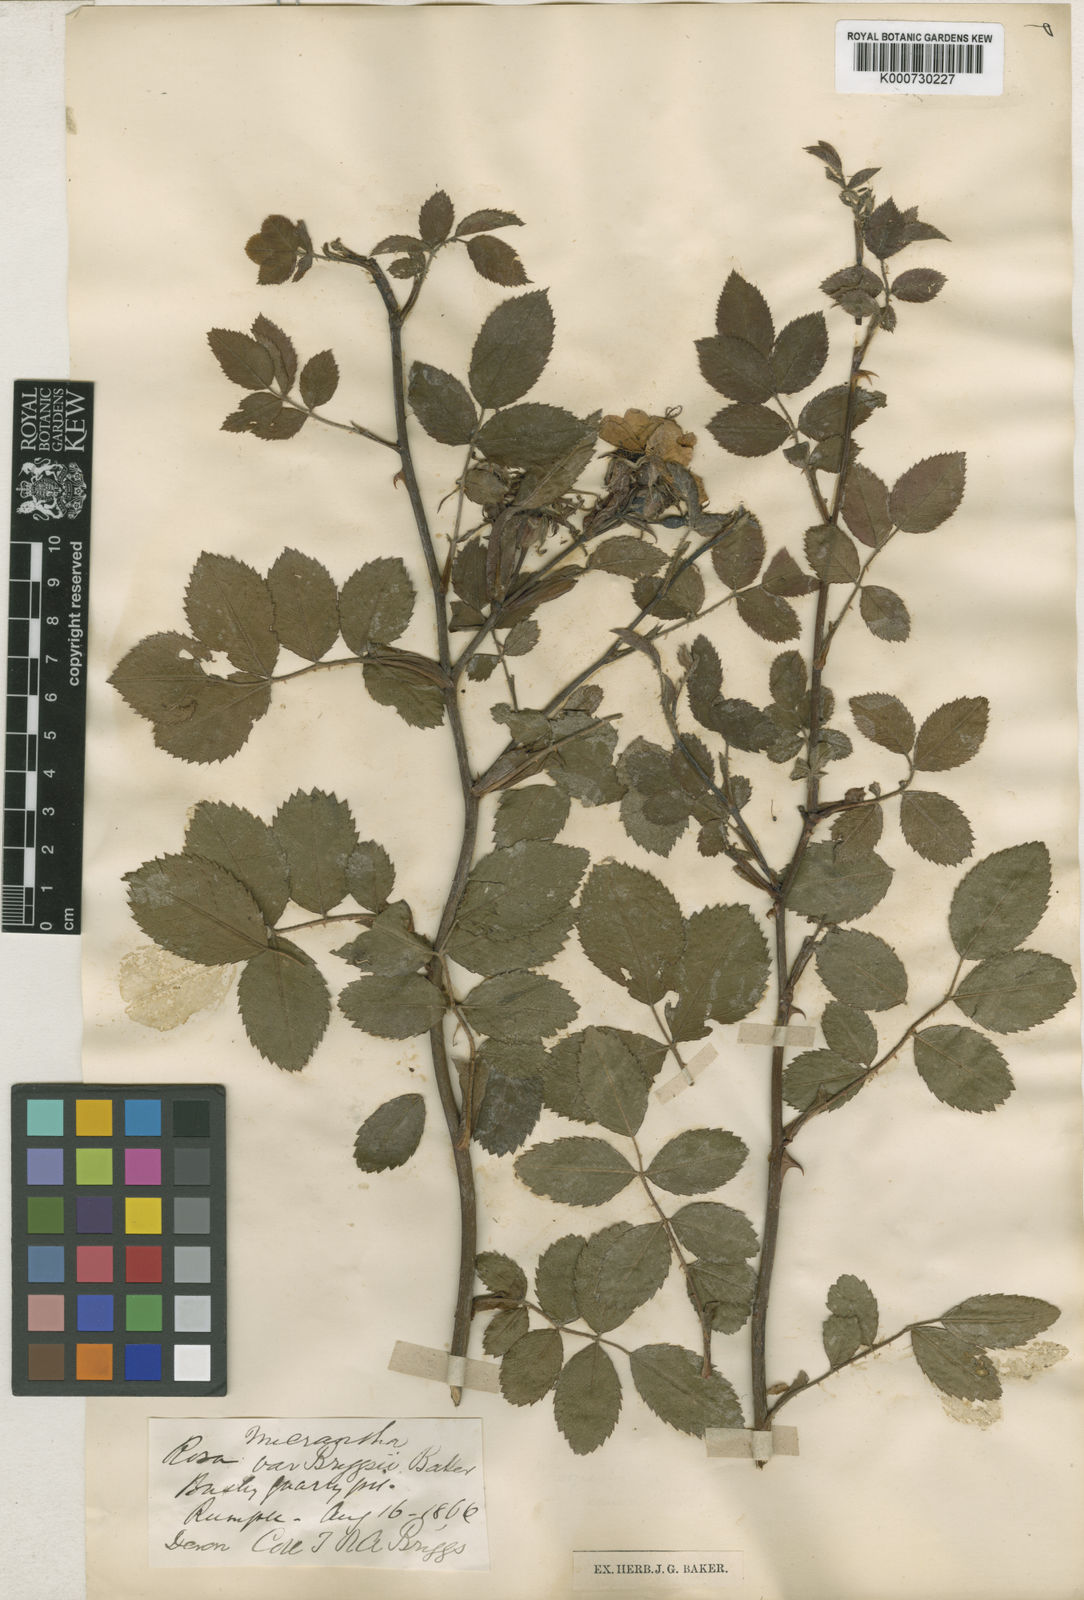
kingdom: Plantae
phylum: Tracheophyta
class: Magnoliopsida
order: Rosales
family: Rosaceae
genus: Rosa
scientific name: Rosa micrantha
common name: Small-flowered sweet-briar
